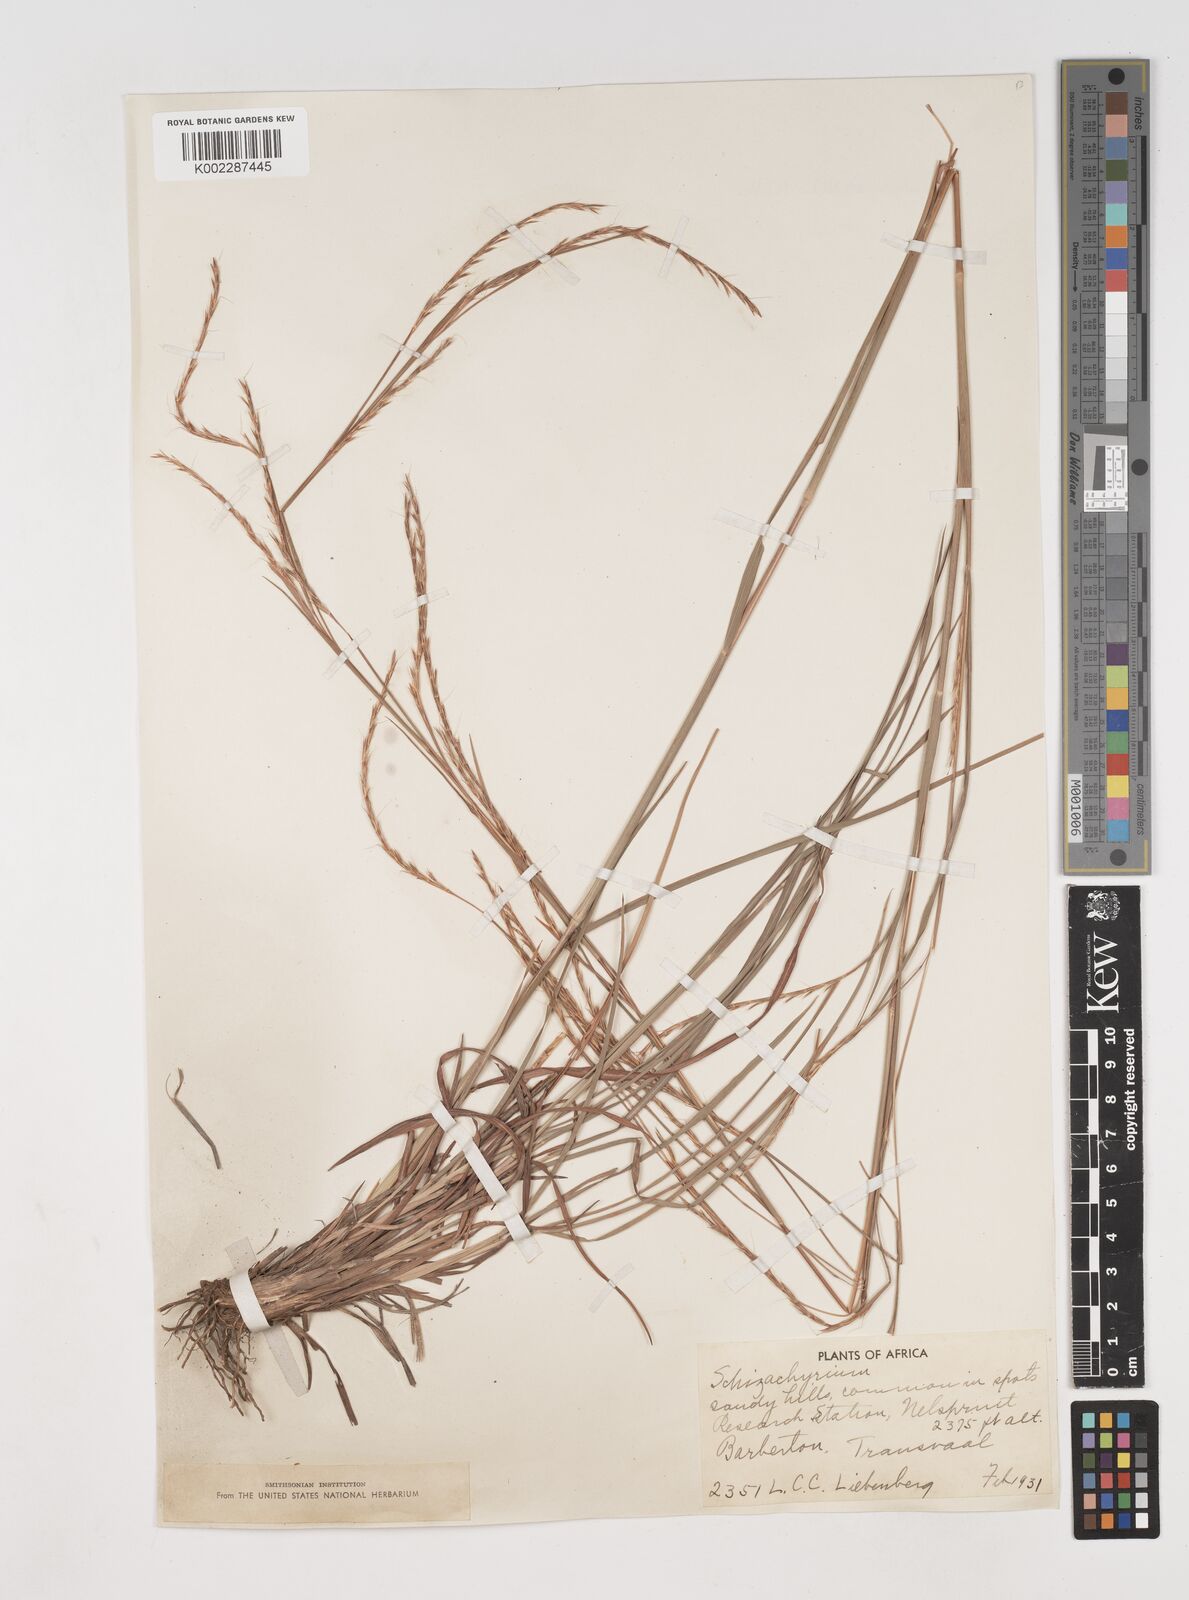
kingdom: Plantae
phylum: Tracheophyta
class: Liliopsida
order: Poales
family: Poaceae
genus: Schizachyrium
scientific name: Schizachyrium sanguineum
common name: Crimson bluestem
